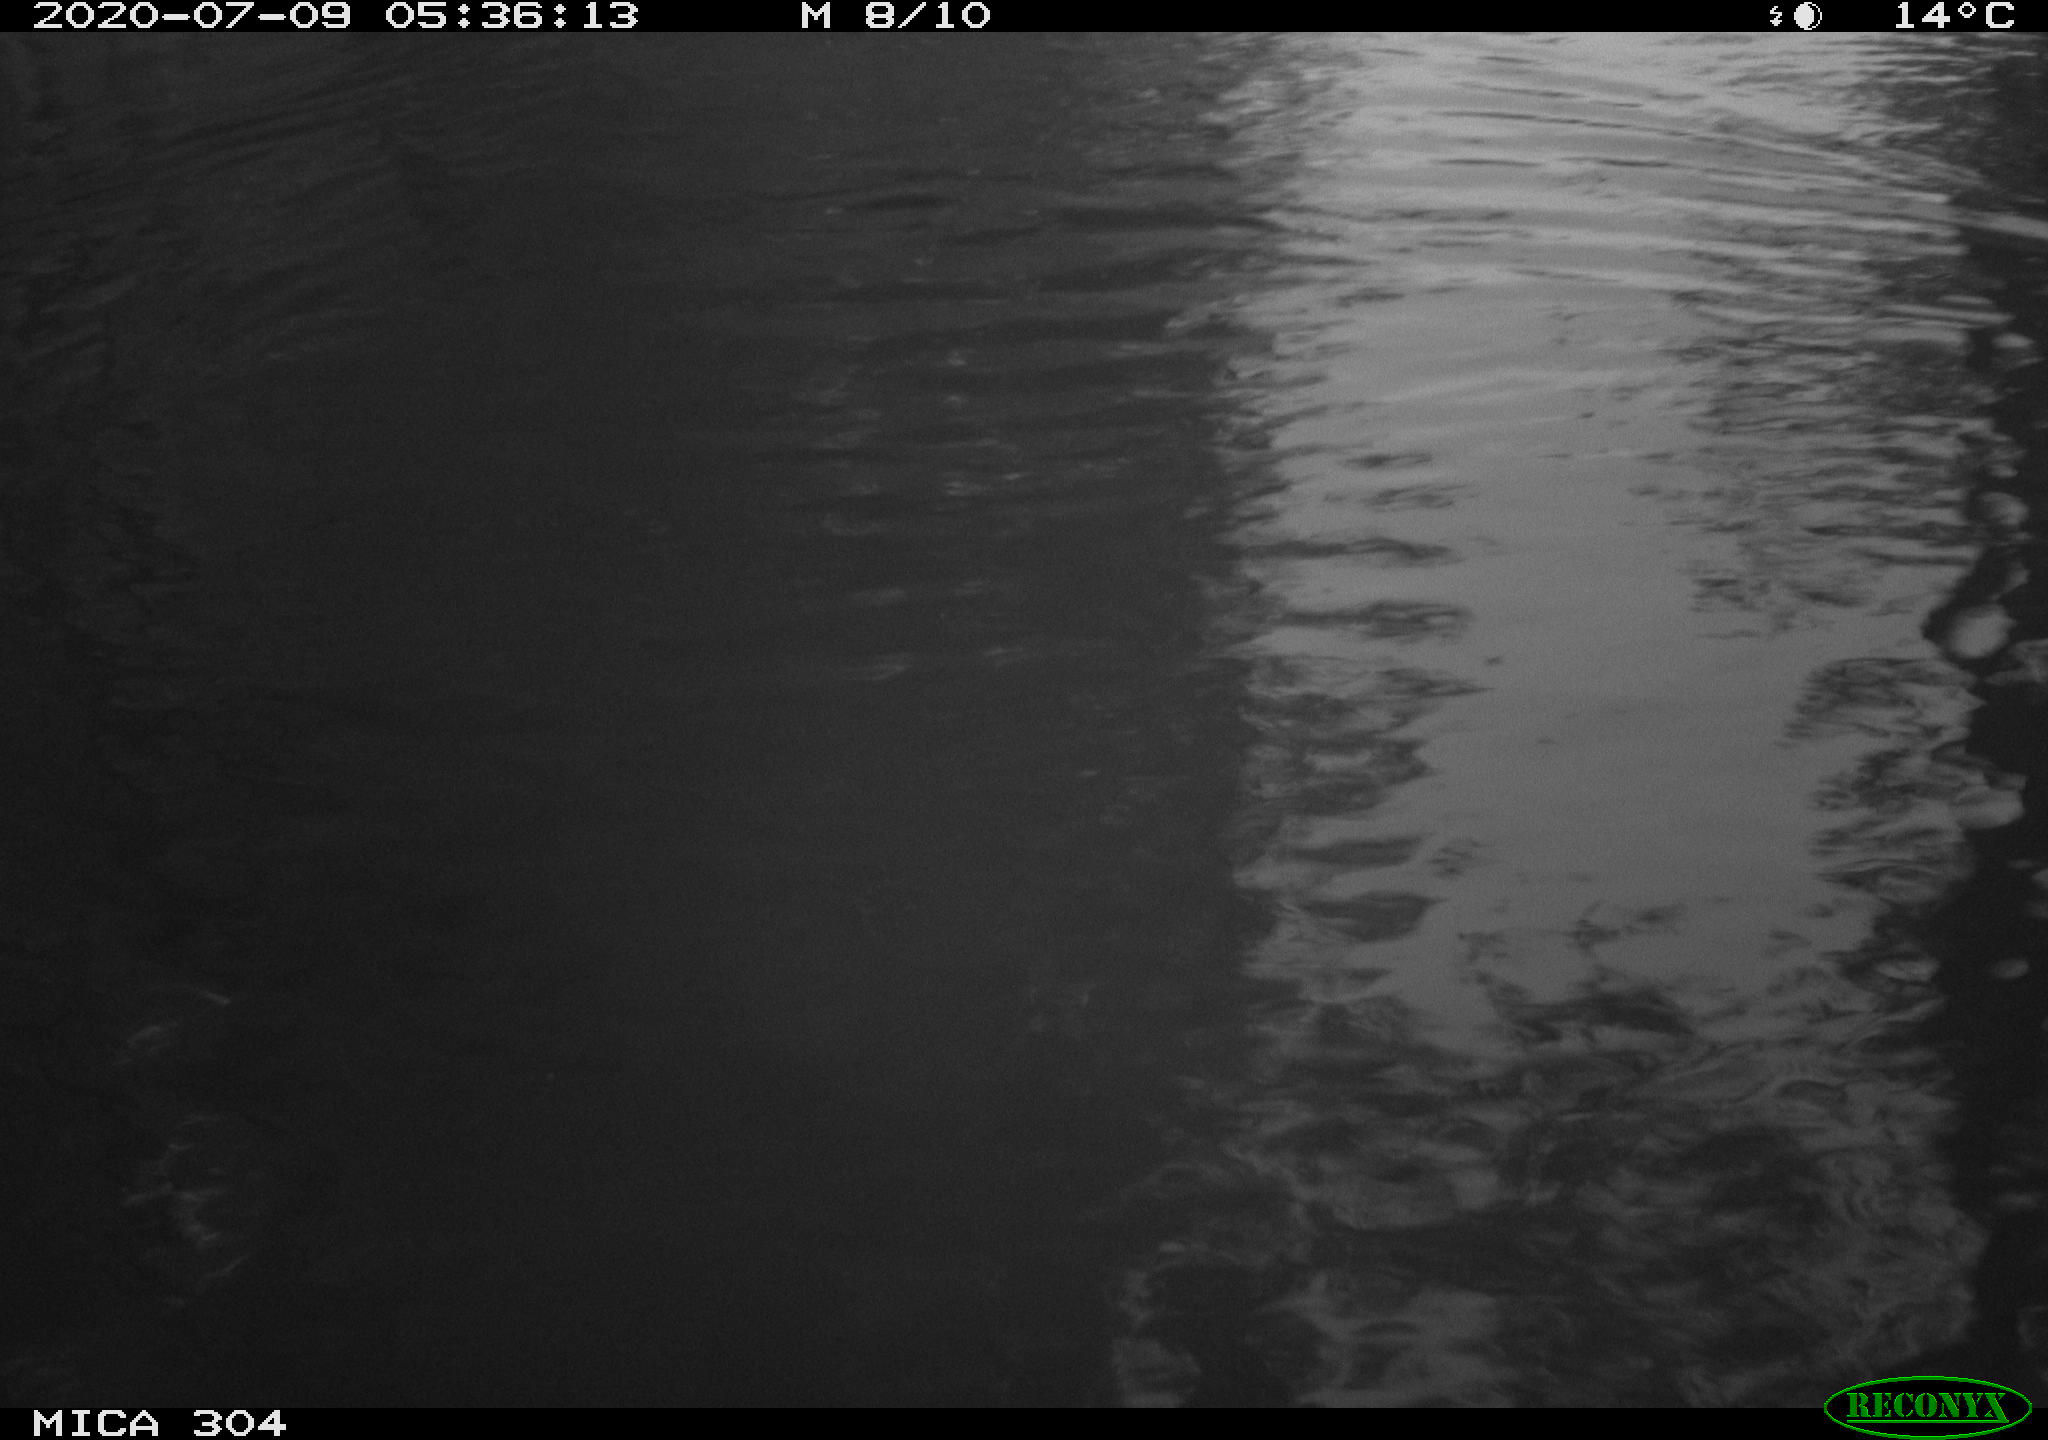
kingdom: Animalia
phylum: Chordata
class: Aves
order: Anseriformes
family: Anatidae
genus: Anas
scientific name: Anas platyrhynchos
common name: Mallard
